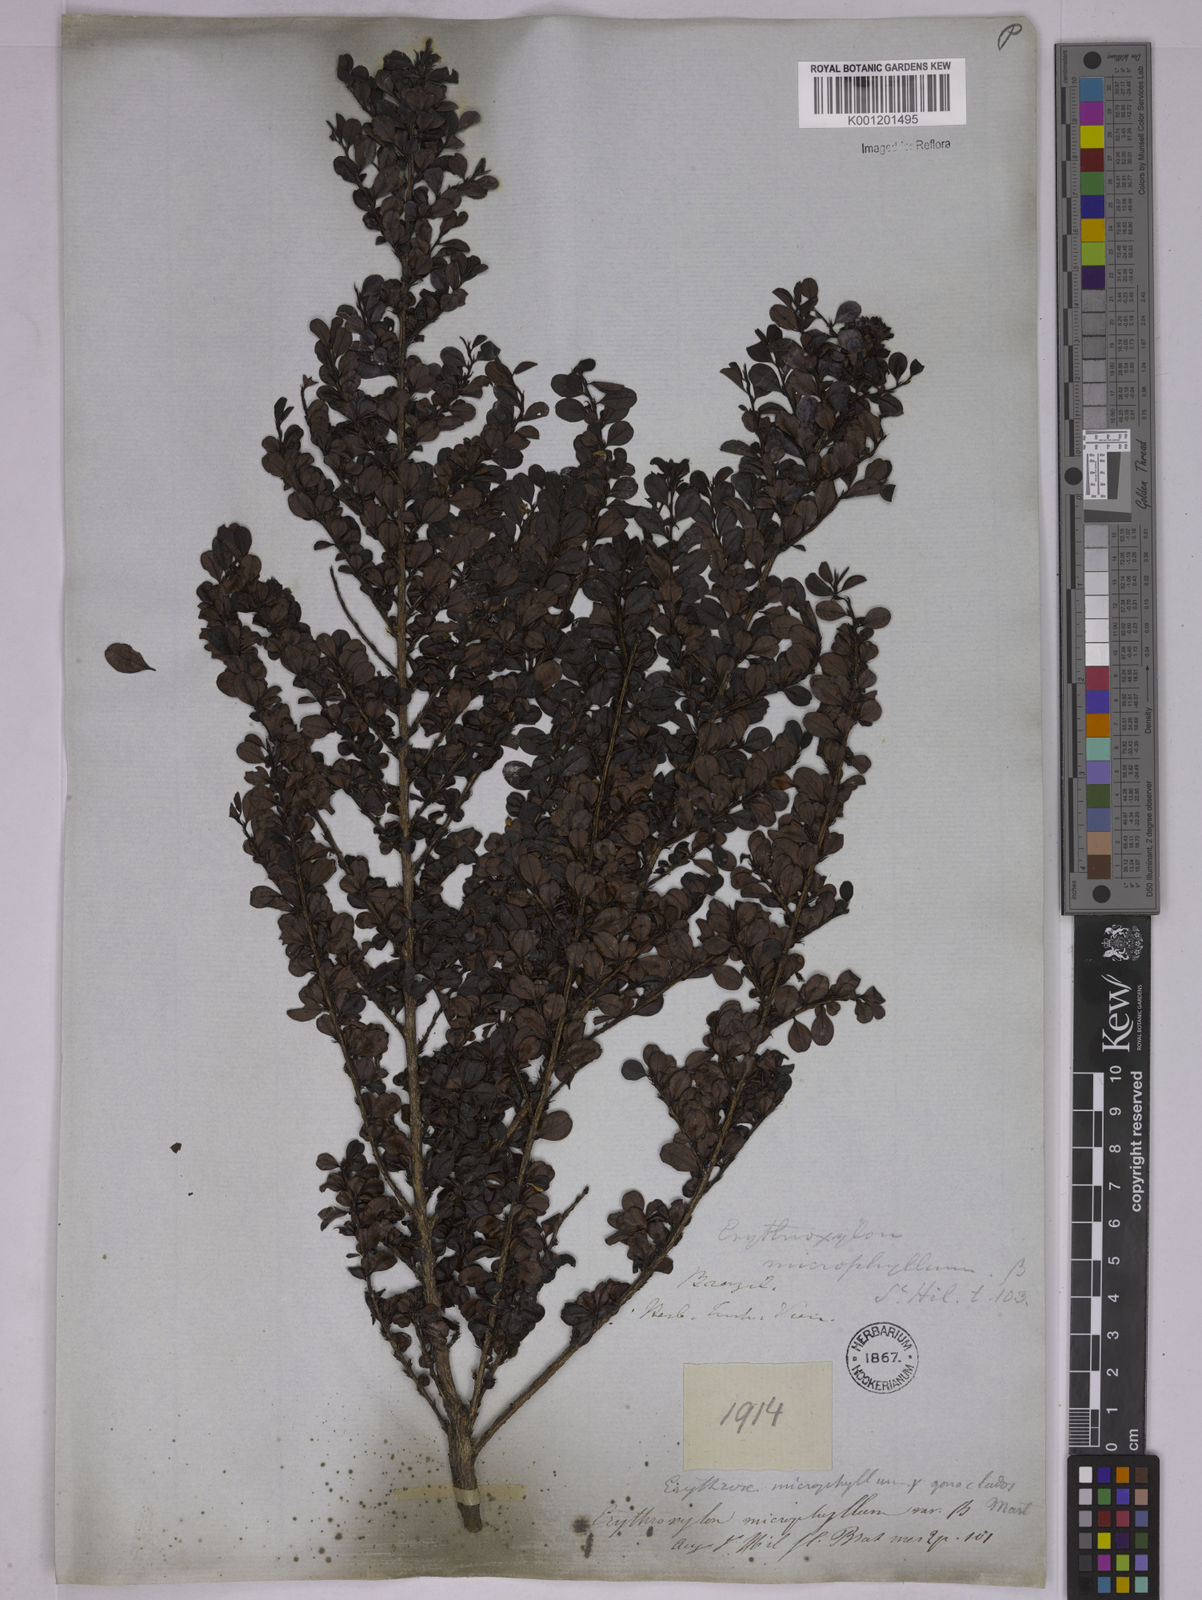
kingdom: Plantae
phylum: Tracheophyta
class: Magnoliopsida
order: Malpighiales
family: Erythroxylaceae
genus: Erythroxylum
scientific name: Erythroxylum
